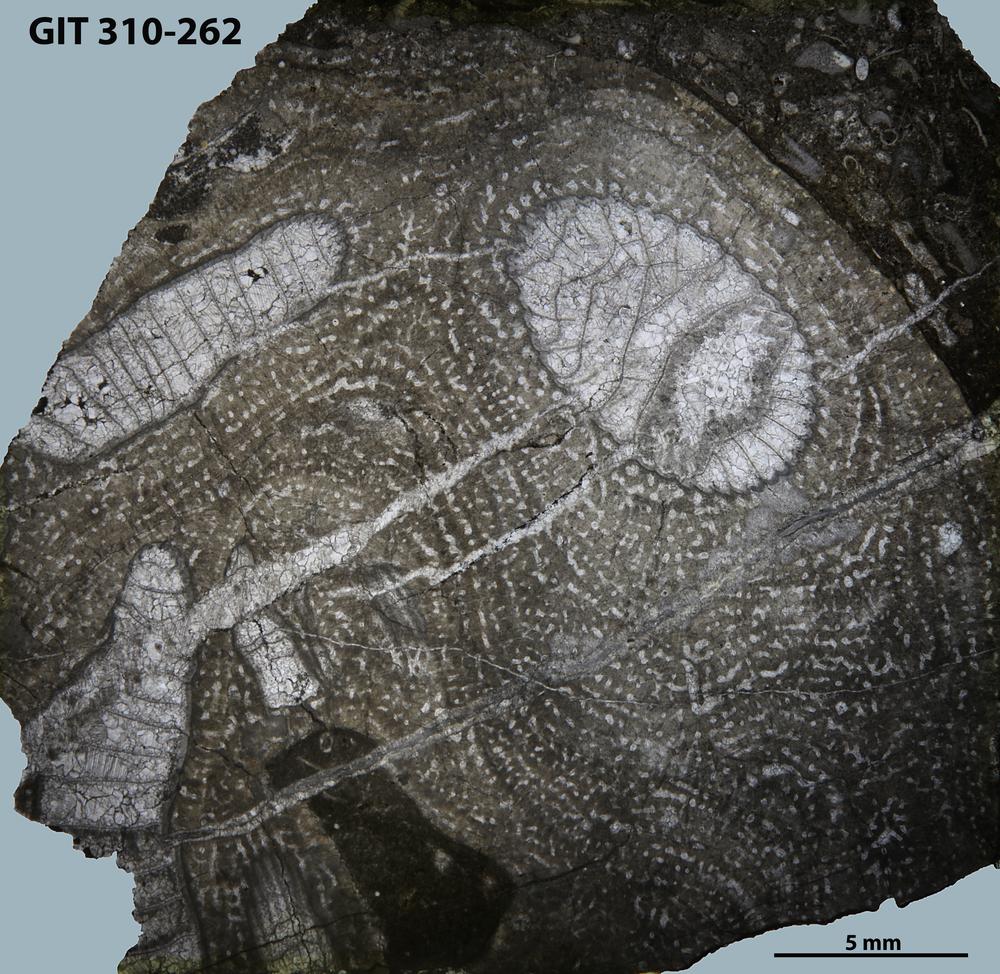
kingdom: Animalia
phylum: Porifera
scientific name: Porifera
